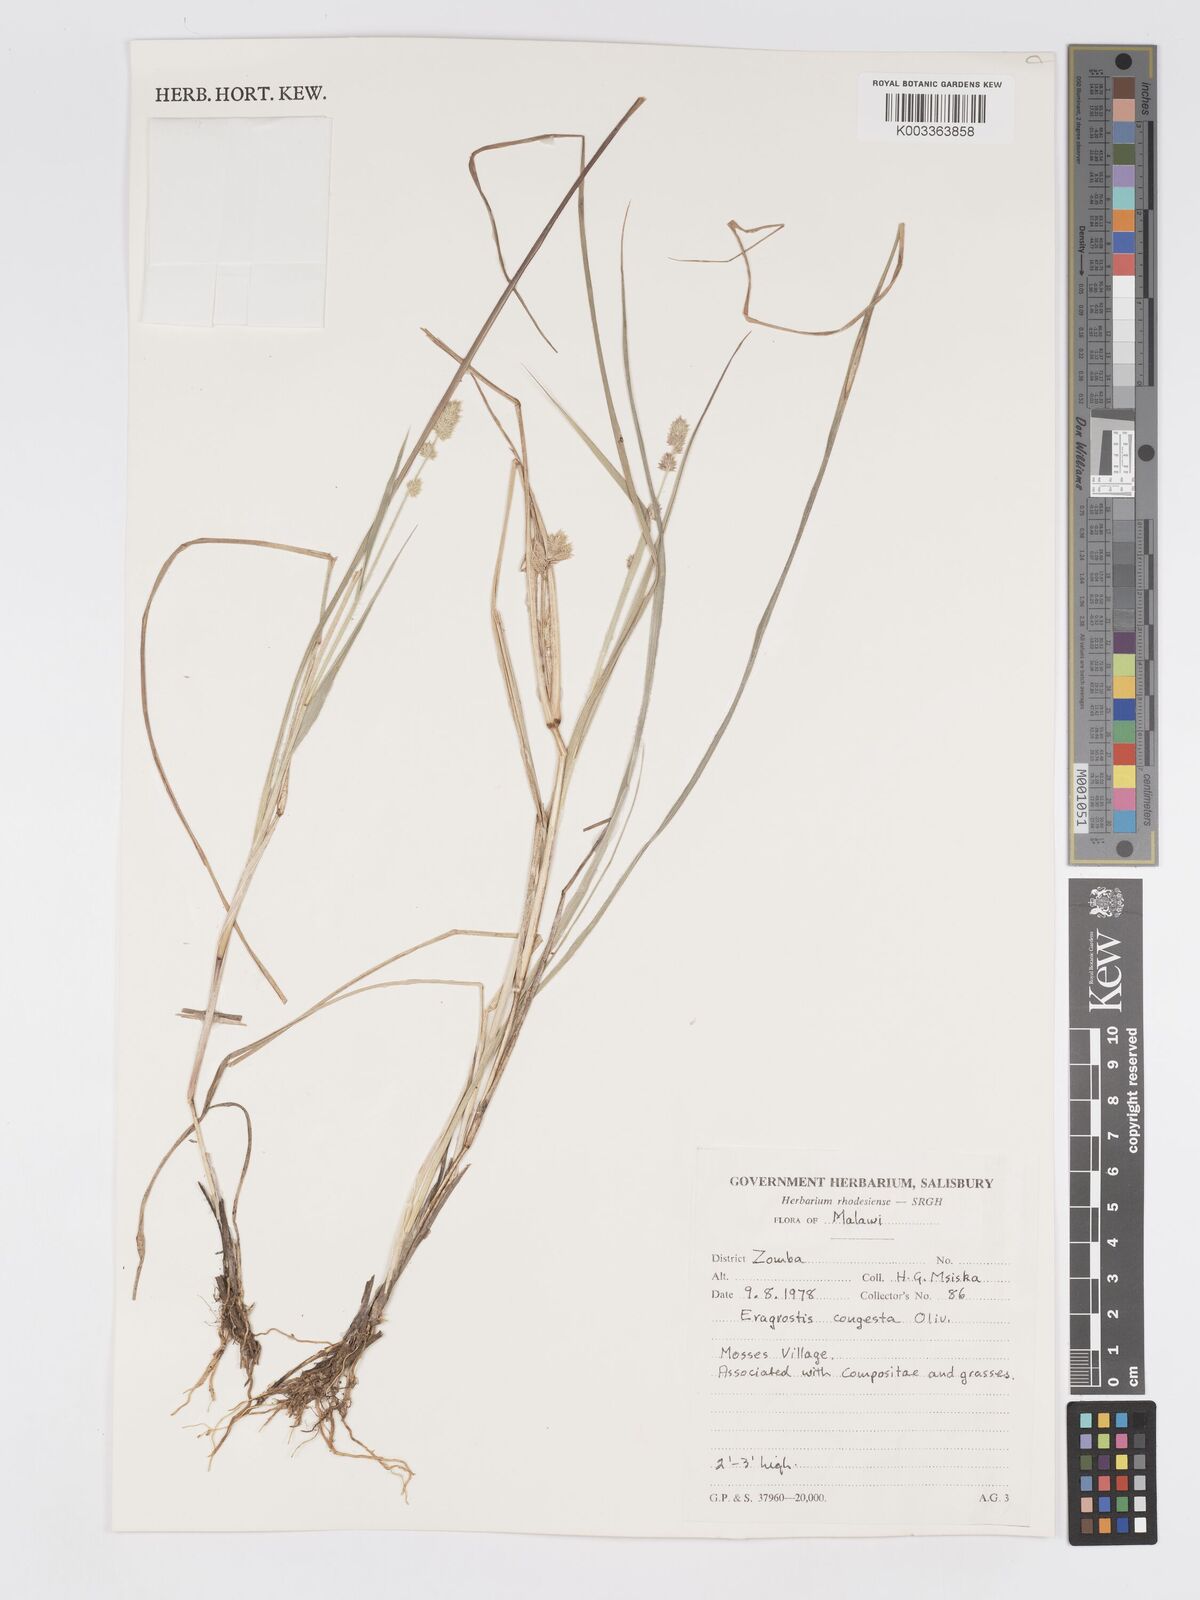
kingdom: Plantae
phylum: Tracheophyta
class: Liliopsida
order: Poales
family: Poaceae
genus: Eragrostis
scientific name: Eragrostis congesta
